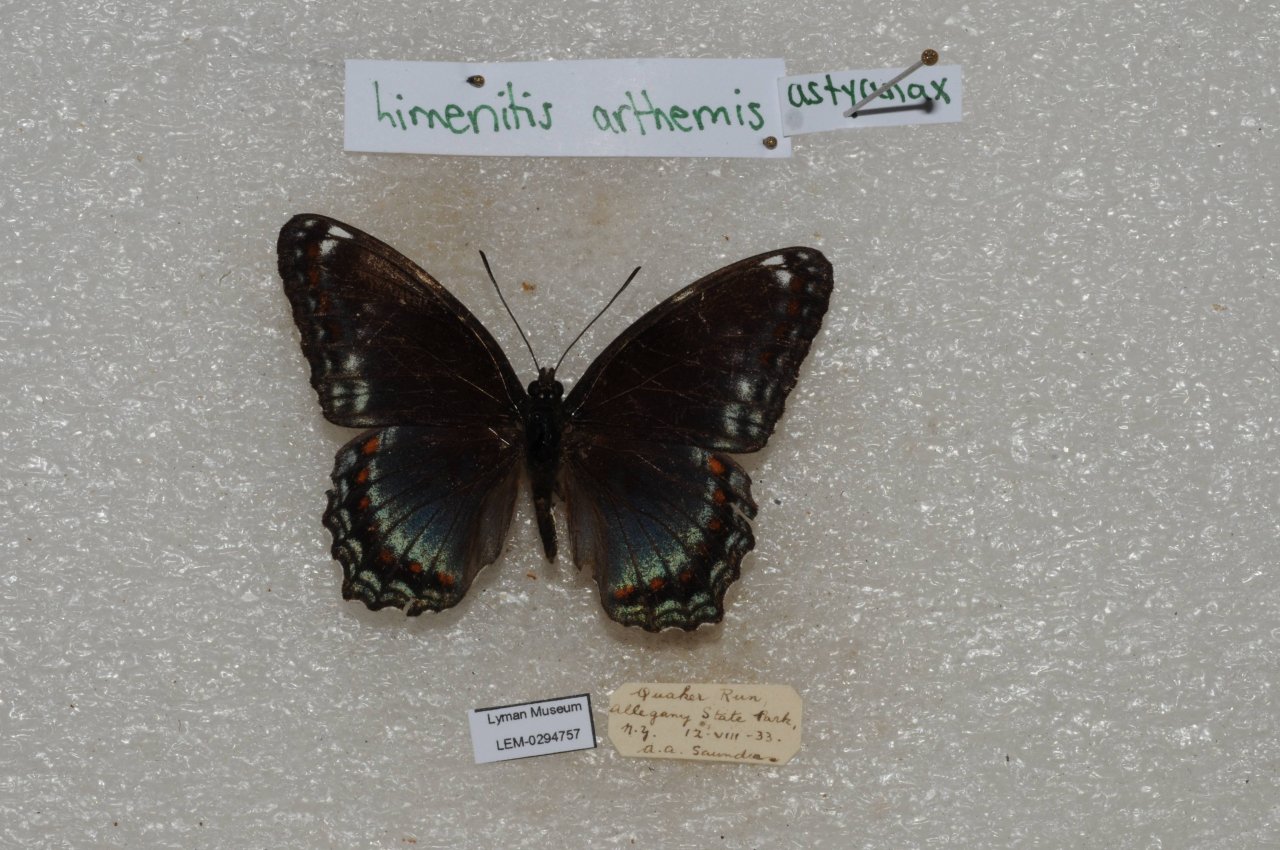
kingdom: Animalia
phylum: Arthropoda
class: Insecta
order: Lepidoptera
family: Nymphalidae
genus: Limenitis
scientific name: Limenitis
